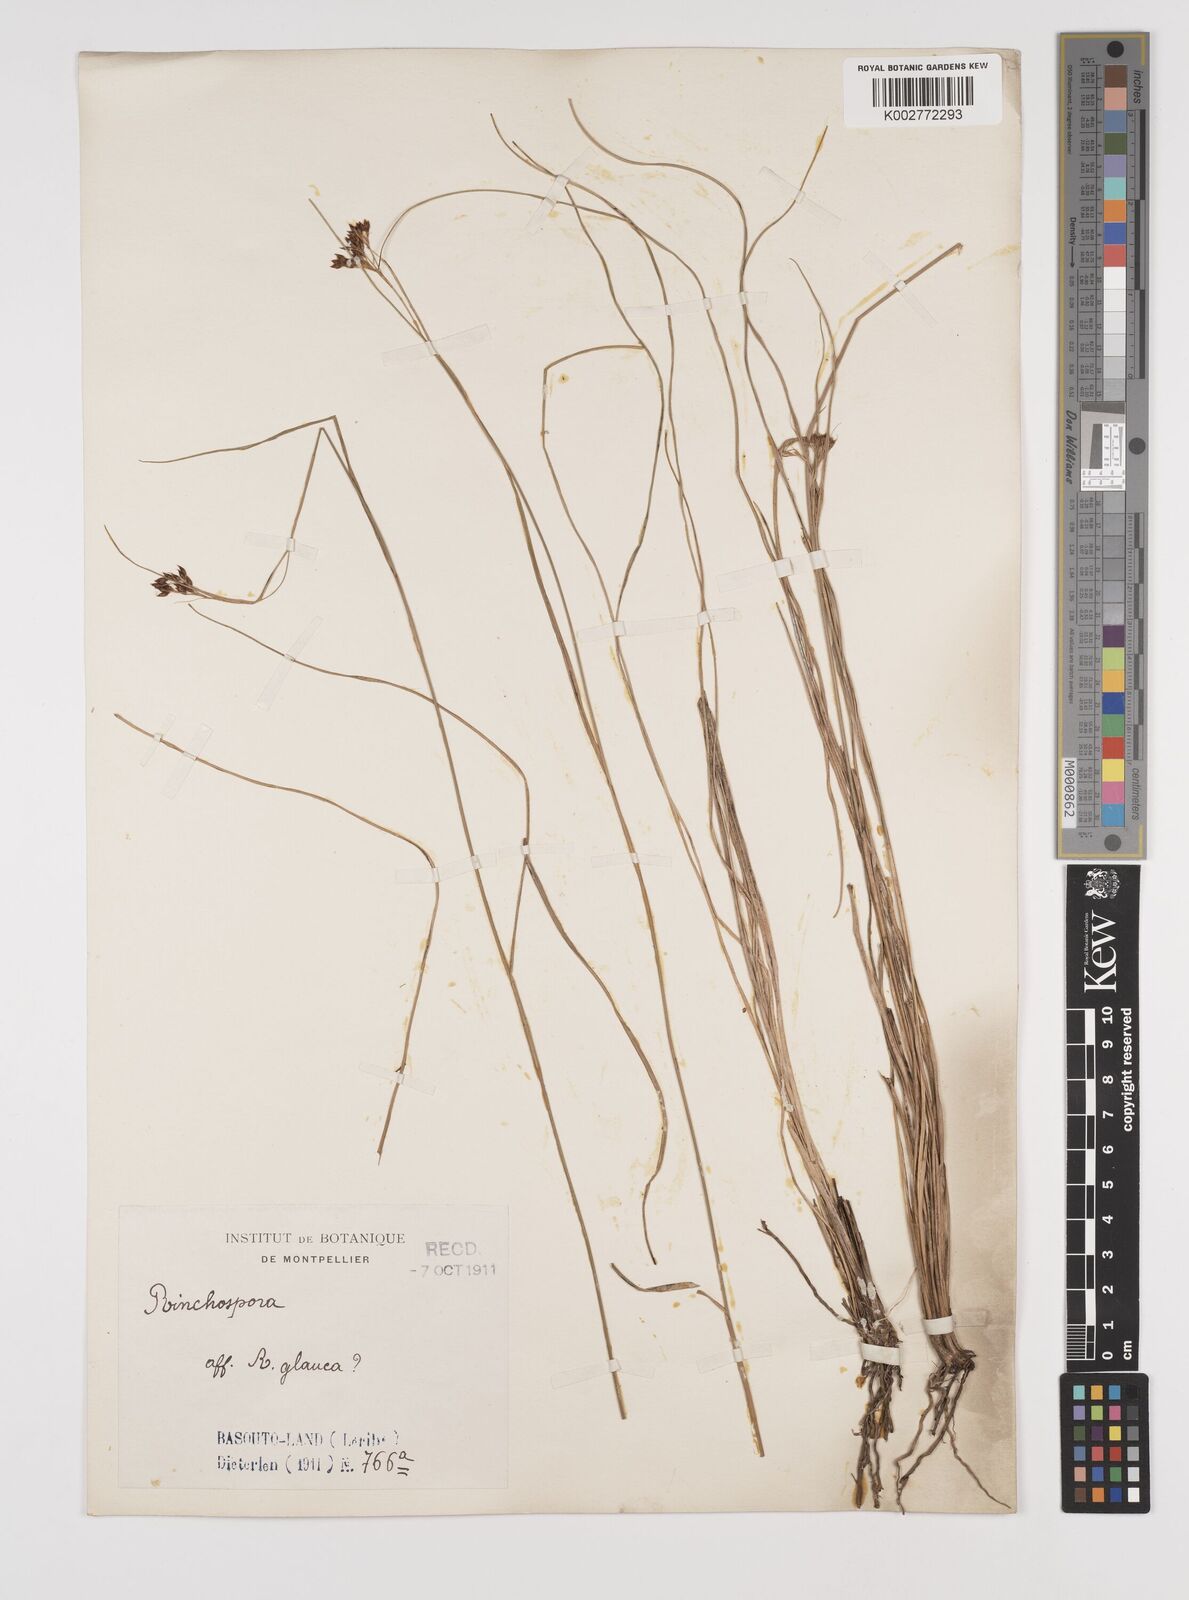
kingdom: Plantae
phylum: Tracheophyta
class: Liliopsida
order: Poales
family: Cyperaceae
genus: Rhynchospora
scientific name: Rhynchospora rugosa
